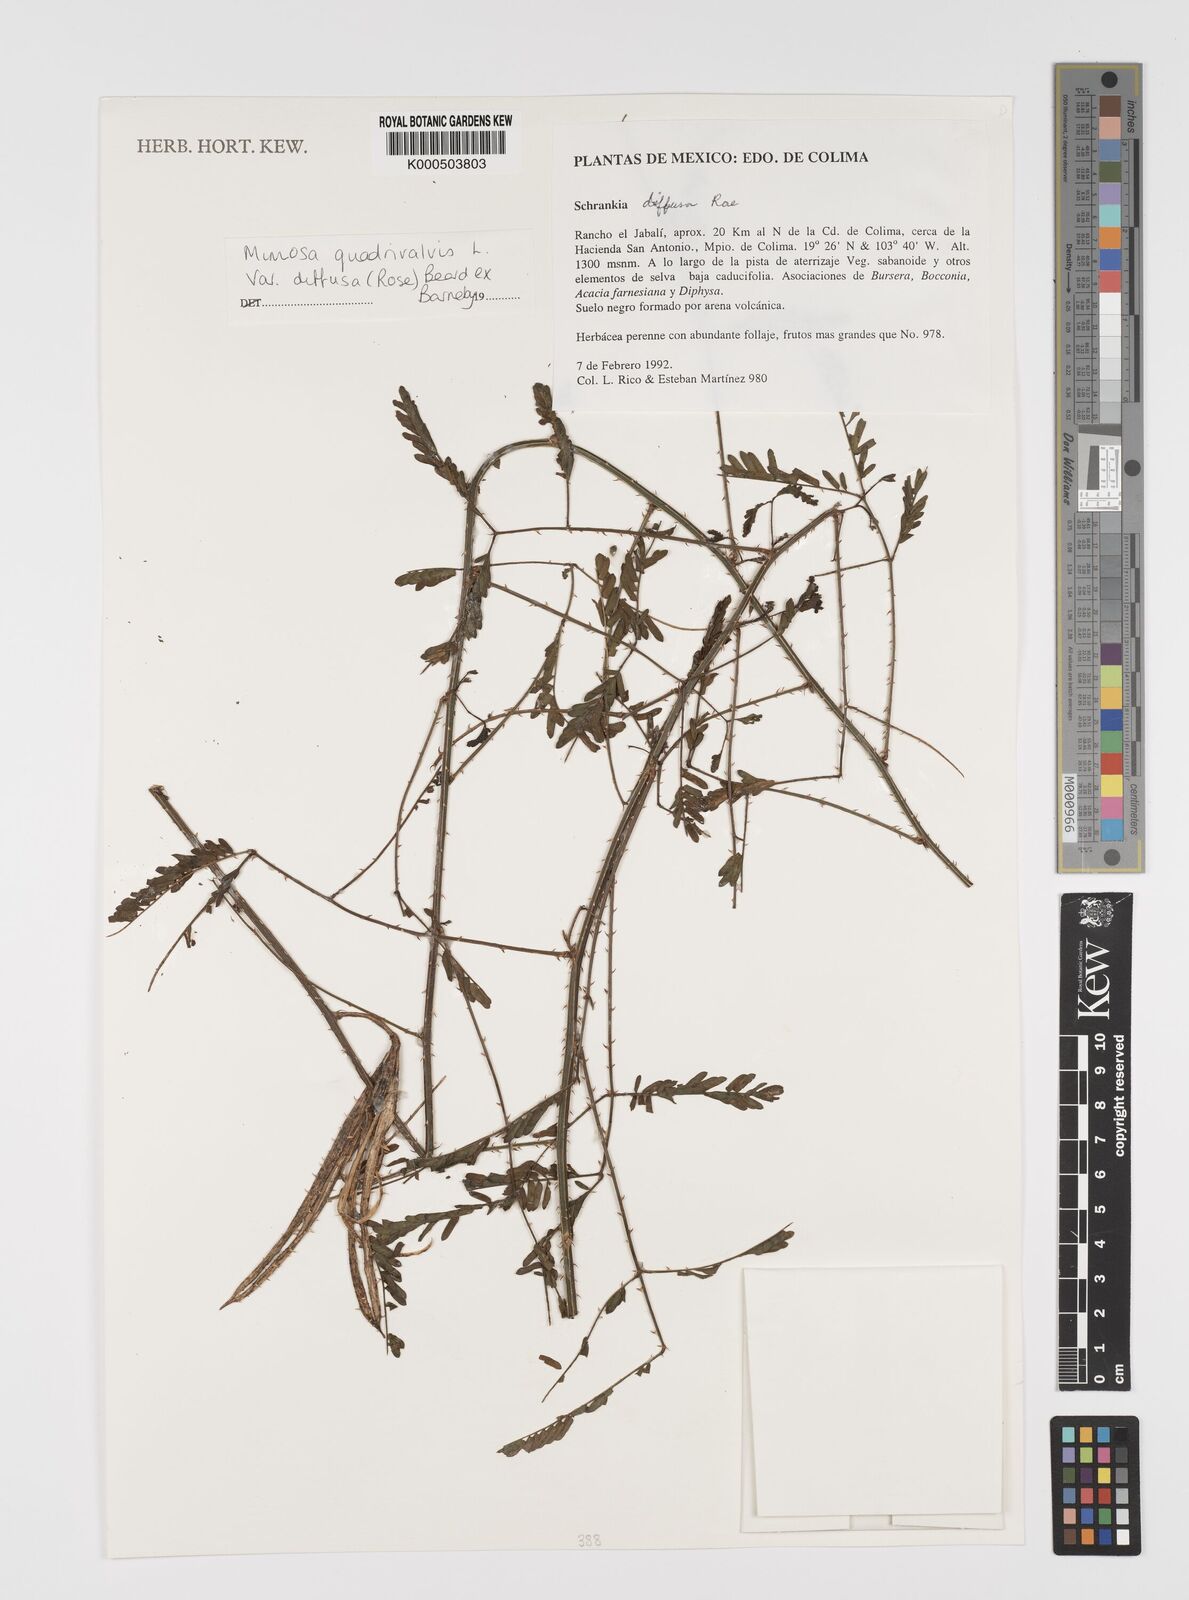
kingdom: Plantae
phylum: Tracheophyta
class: Magnoliopsida
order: Fabales
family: Fabaceae
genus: Mimosa
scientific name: Mimosa quadrivalvis
